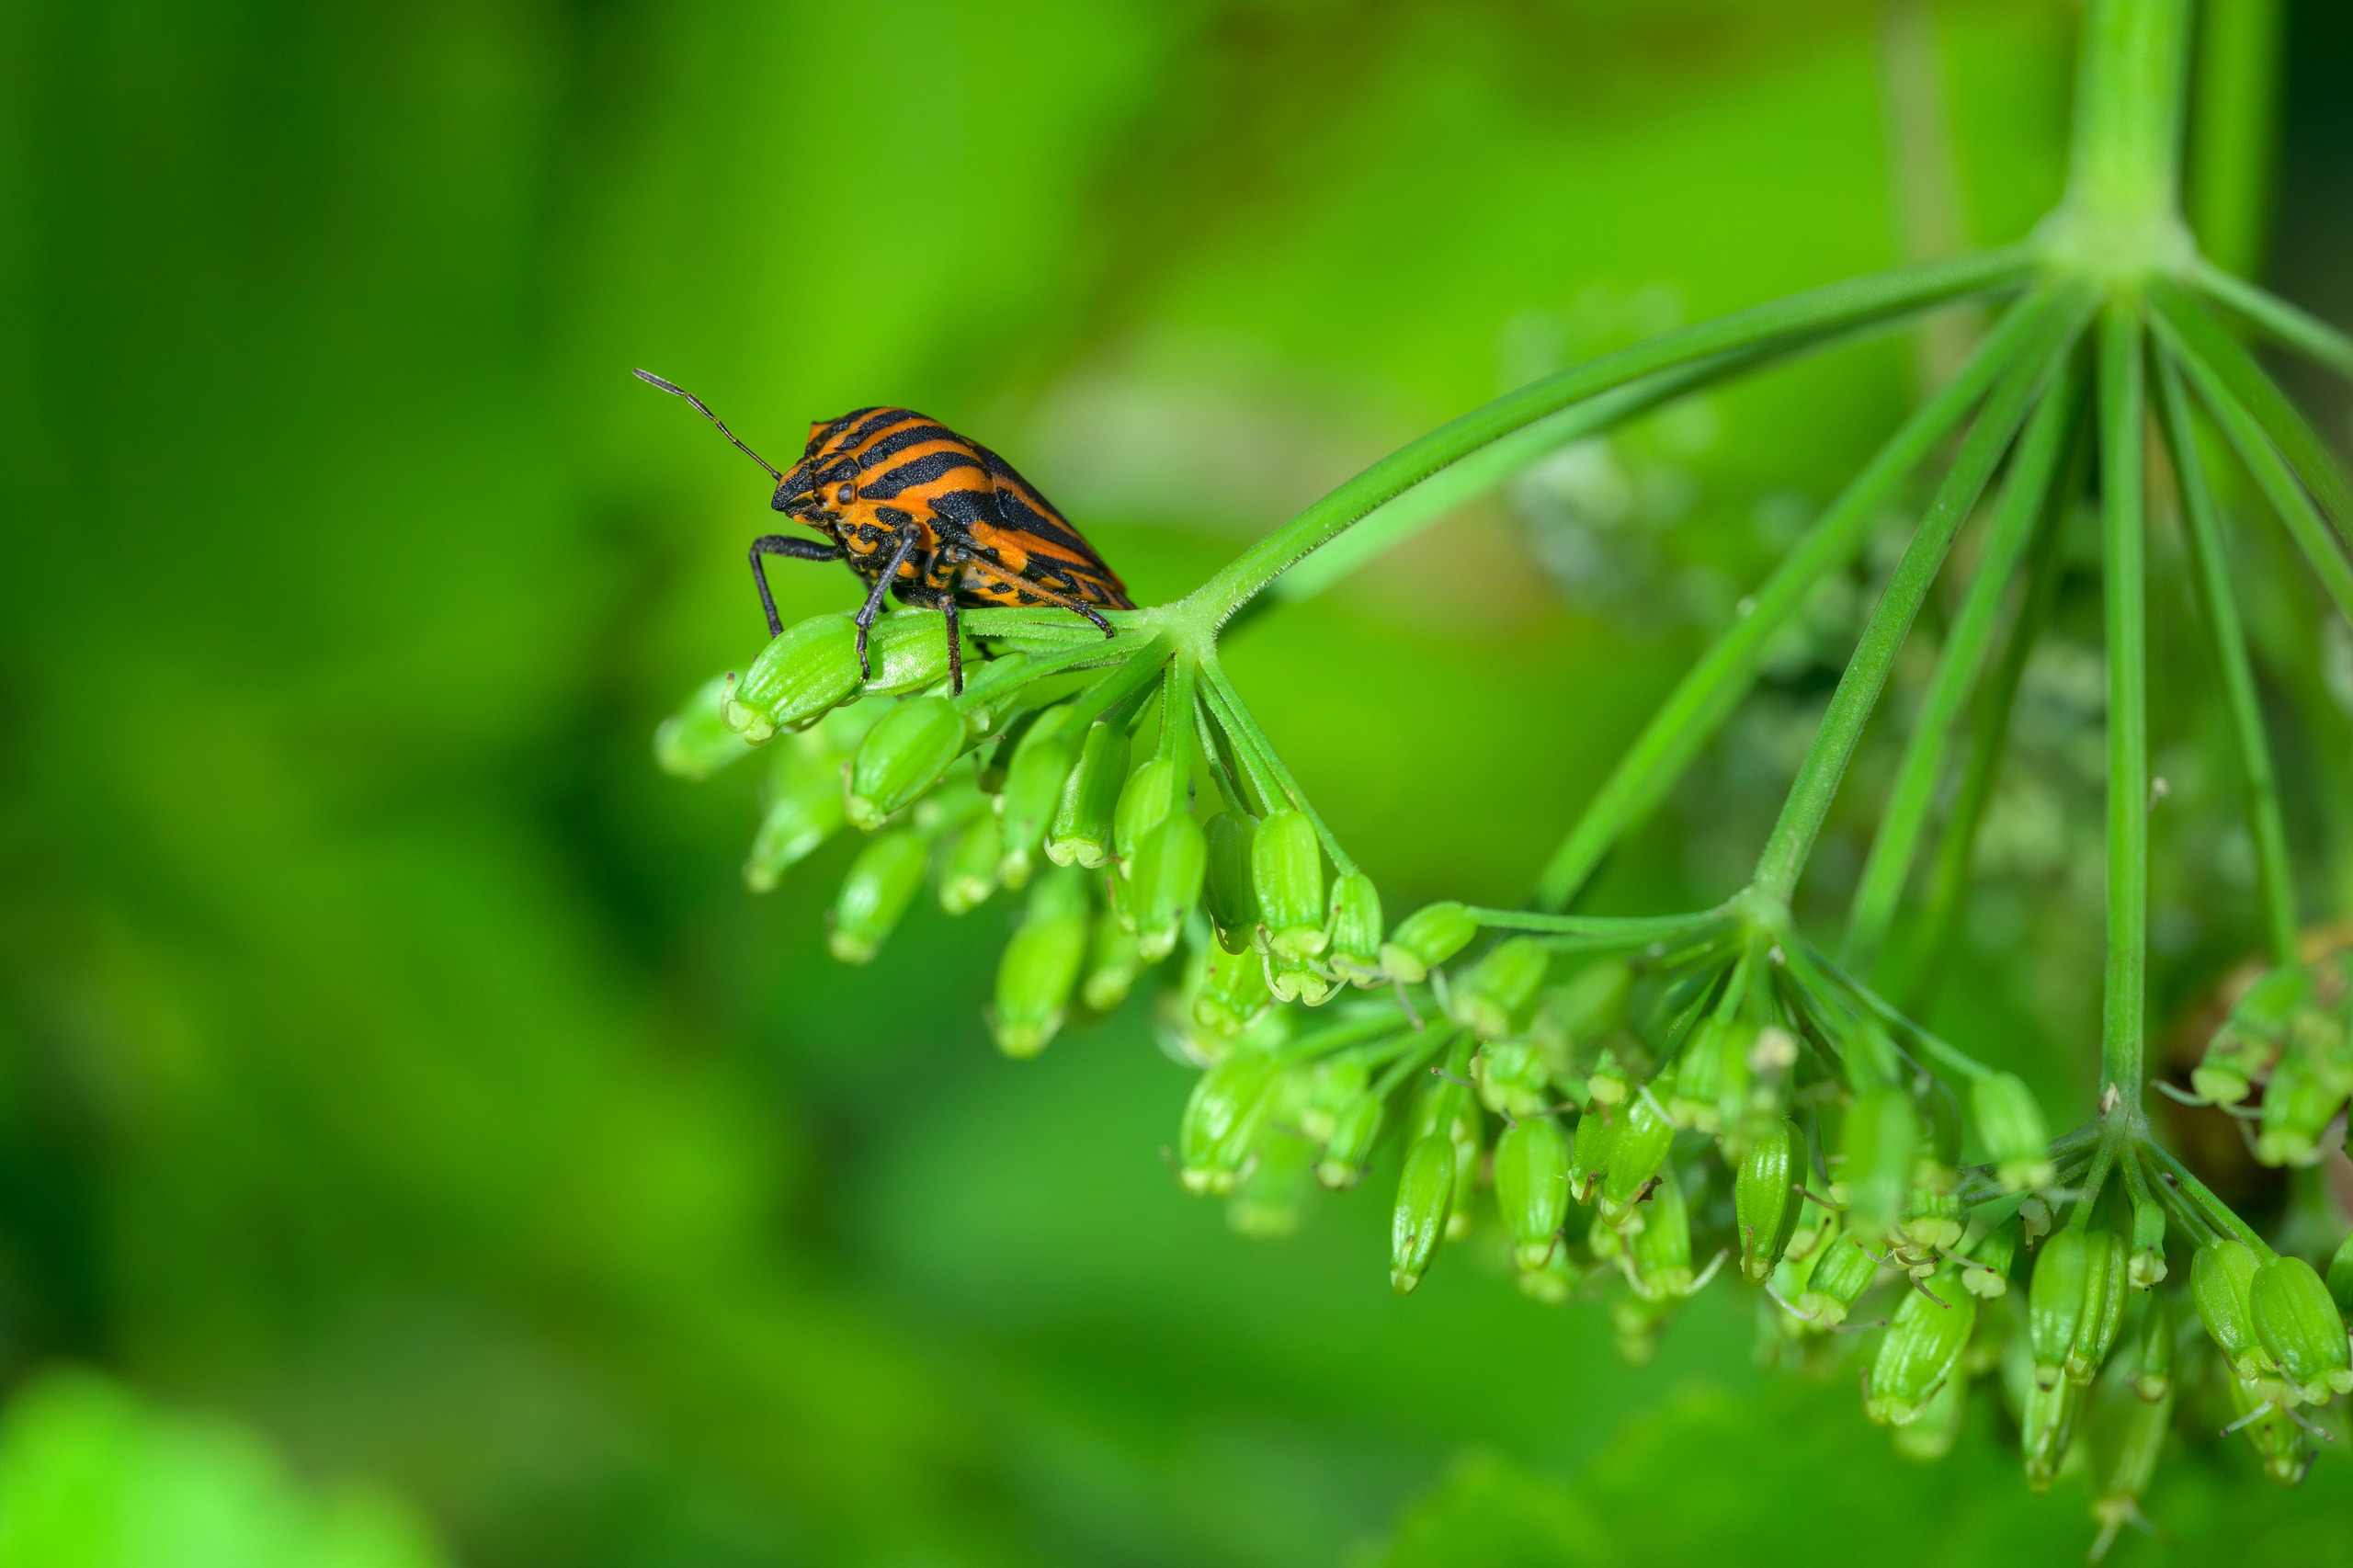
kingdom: Animalia
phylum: Arthropoda
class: Insecta
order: Hemiptera
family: Pentatomidae
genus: Graphosoma
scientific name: Graphosoma italicum
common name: Stribetæge
